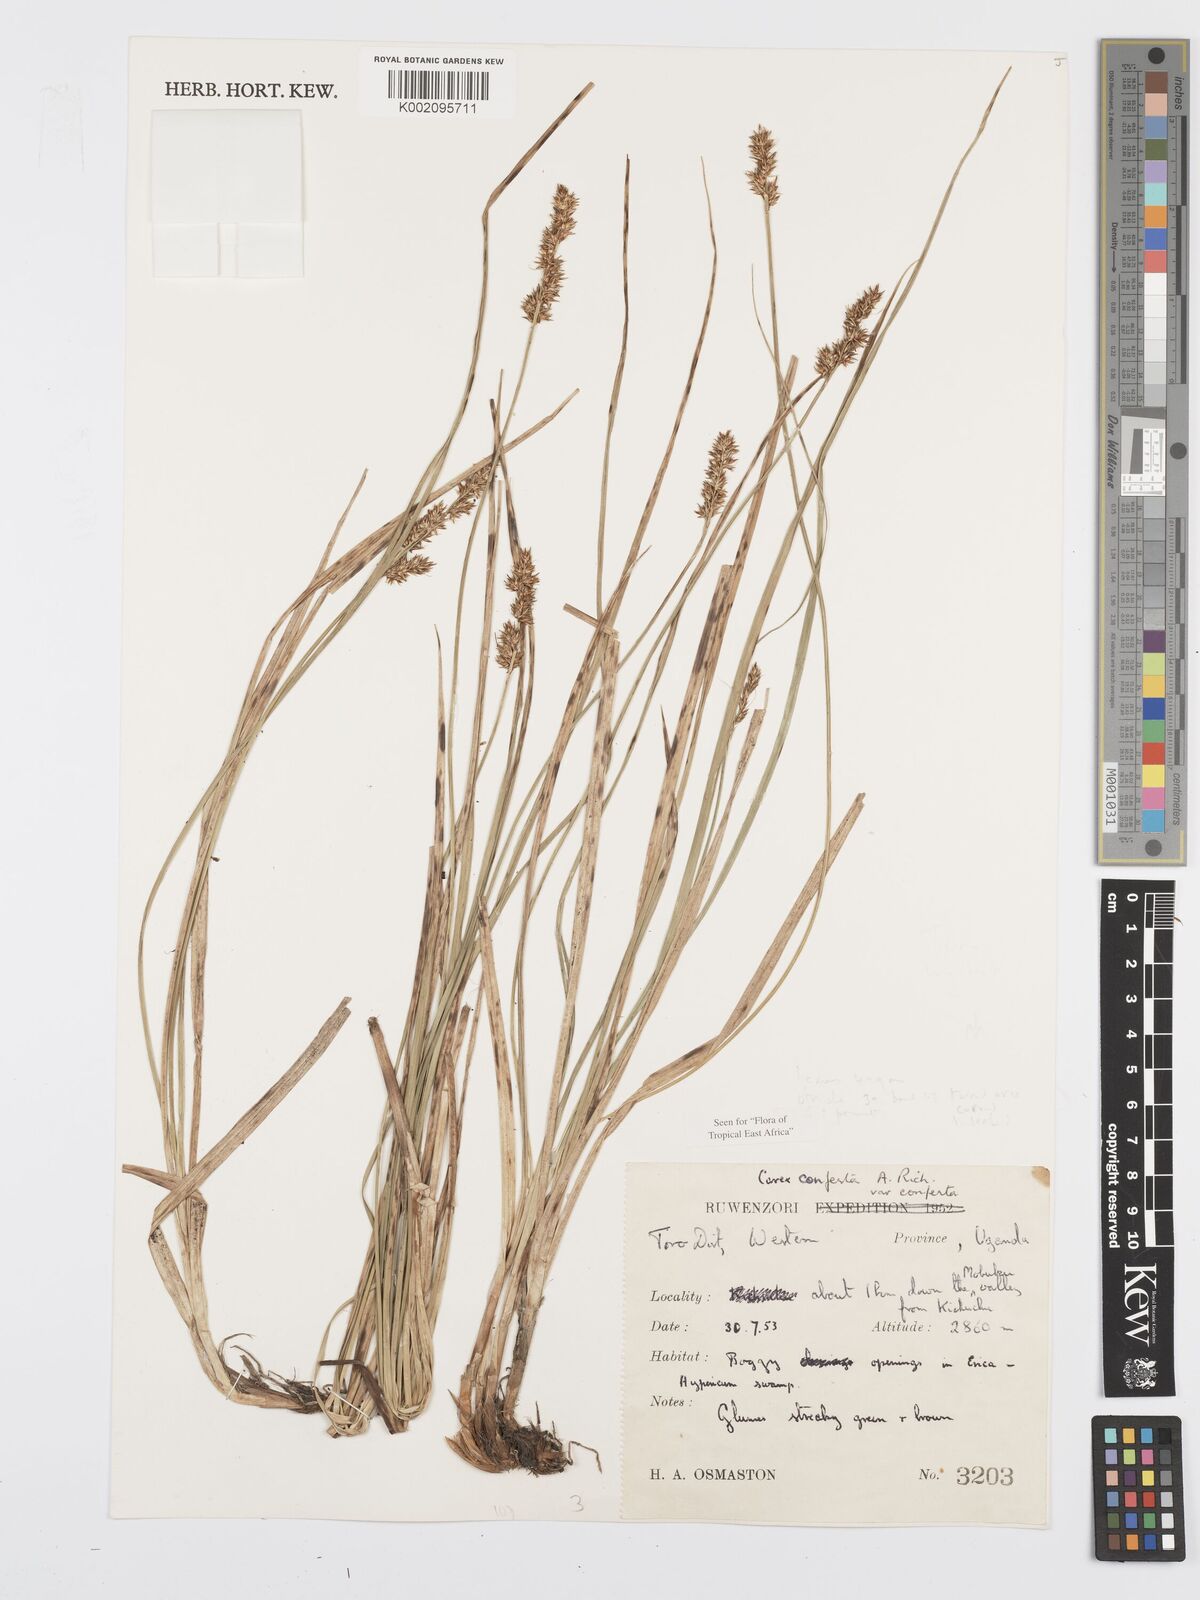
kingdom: Plantae
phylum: Tracheophyta
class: Liliopsida
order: Poales
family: Cyperaceae
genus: Carex
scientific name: Carex conferta
